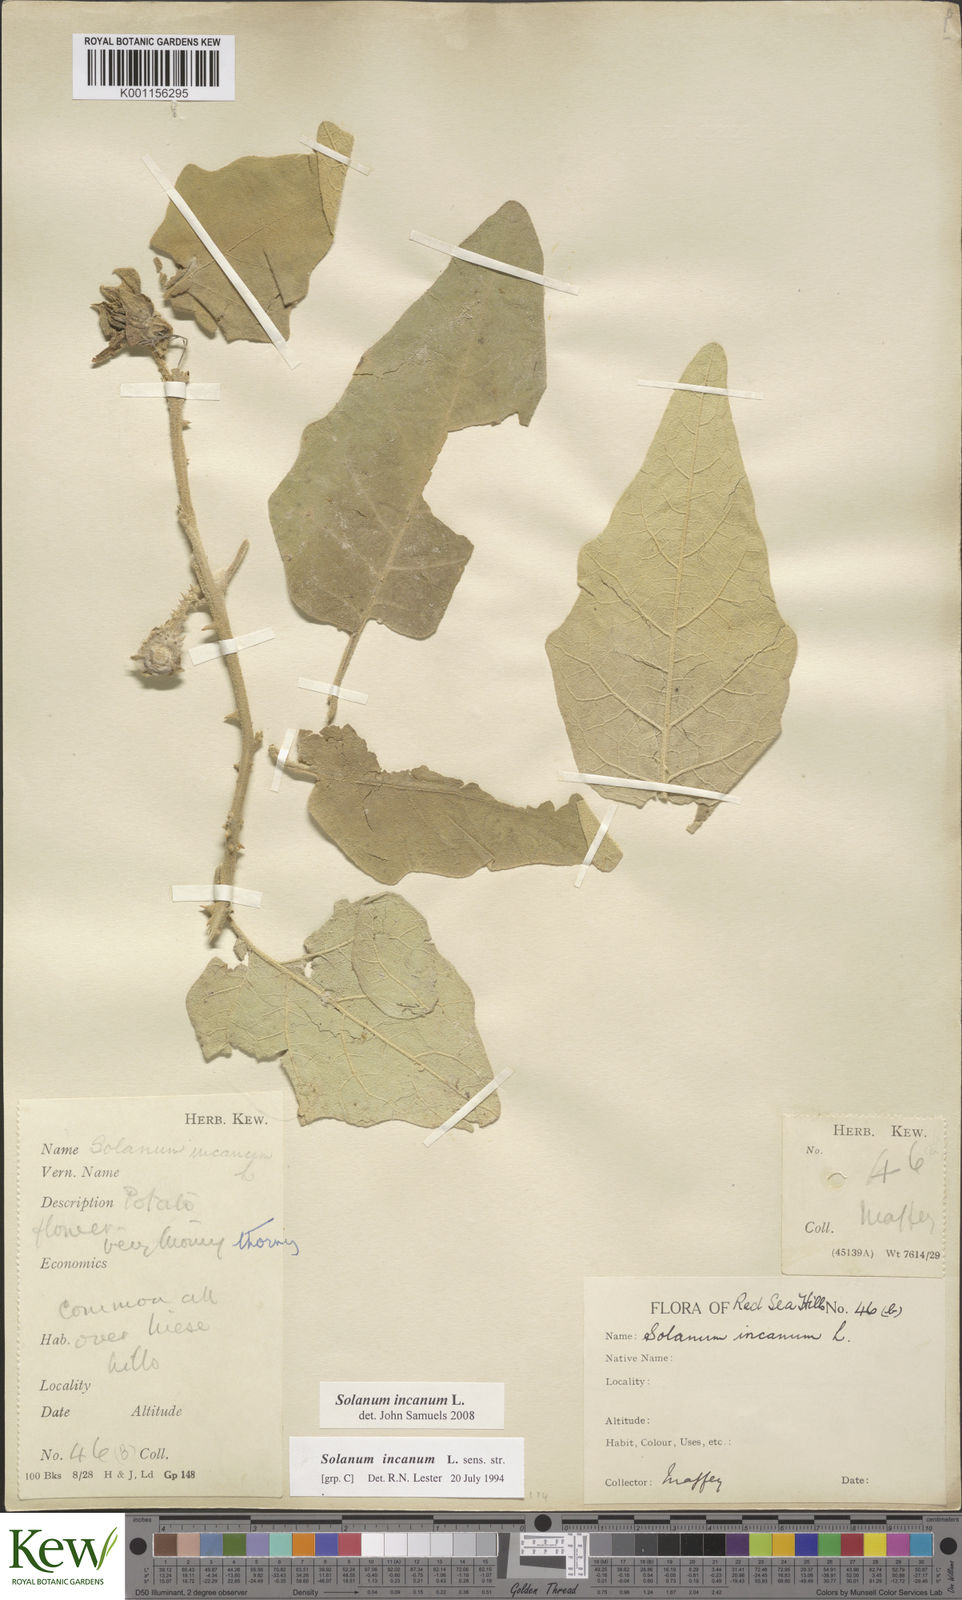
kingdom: Plantae
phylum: Tracheophyta
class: Magnoliopsida
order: Solanales
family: Solanaceae
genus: Solanum
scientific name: Solanum incanum
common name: Bitter apple
